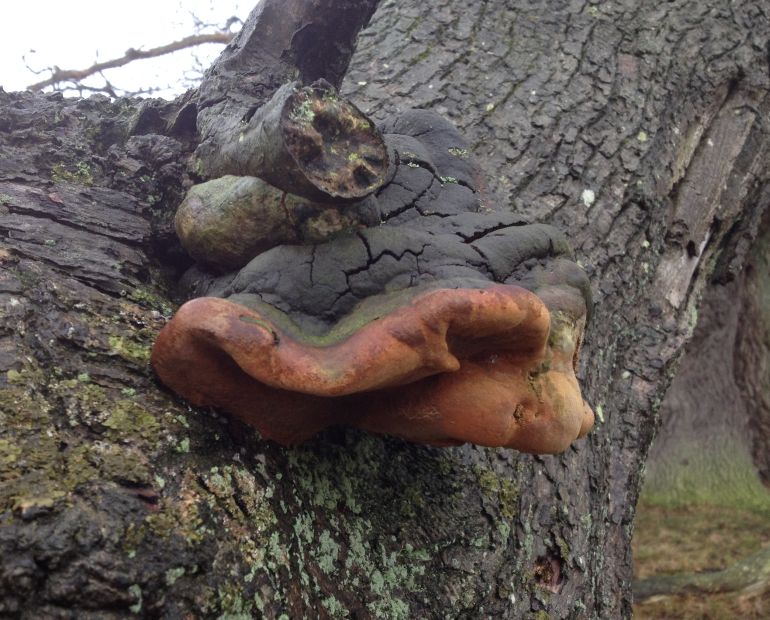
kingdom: Fungi
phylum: Basidiomycota
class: Agaricomycetes
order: Hymenochaetales
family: Hymenochaetaceae
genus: Fomitiporia
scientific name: Fomitiporia robusta
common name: ege-ildporesvamp
